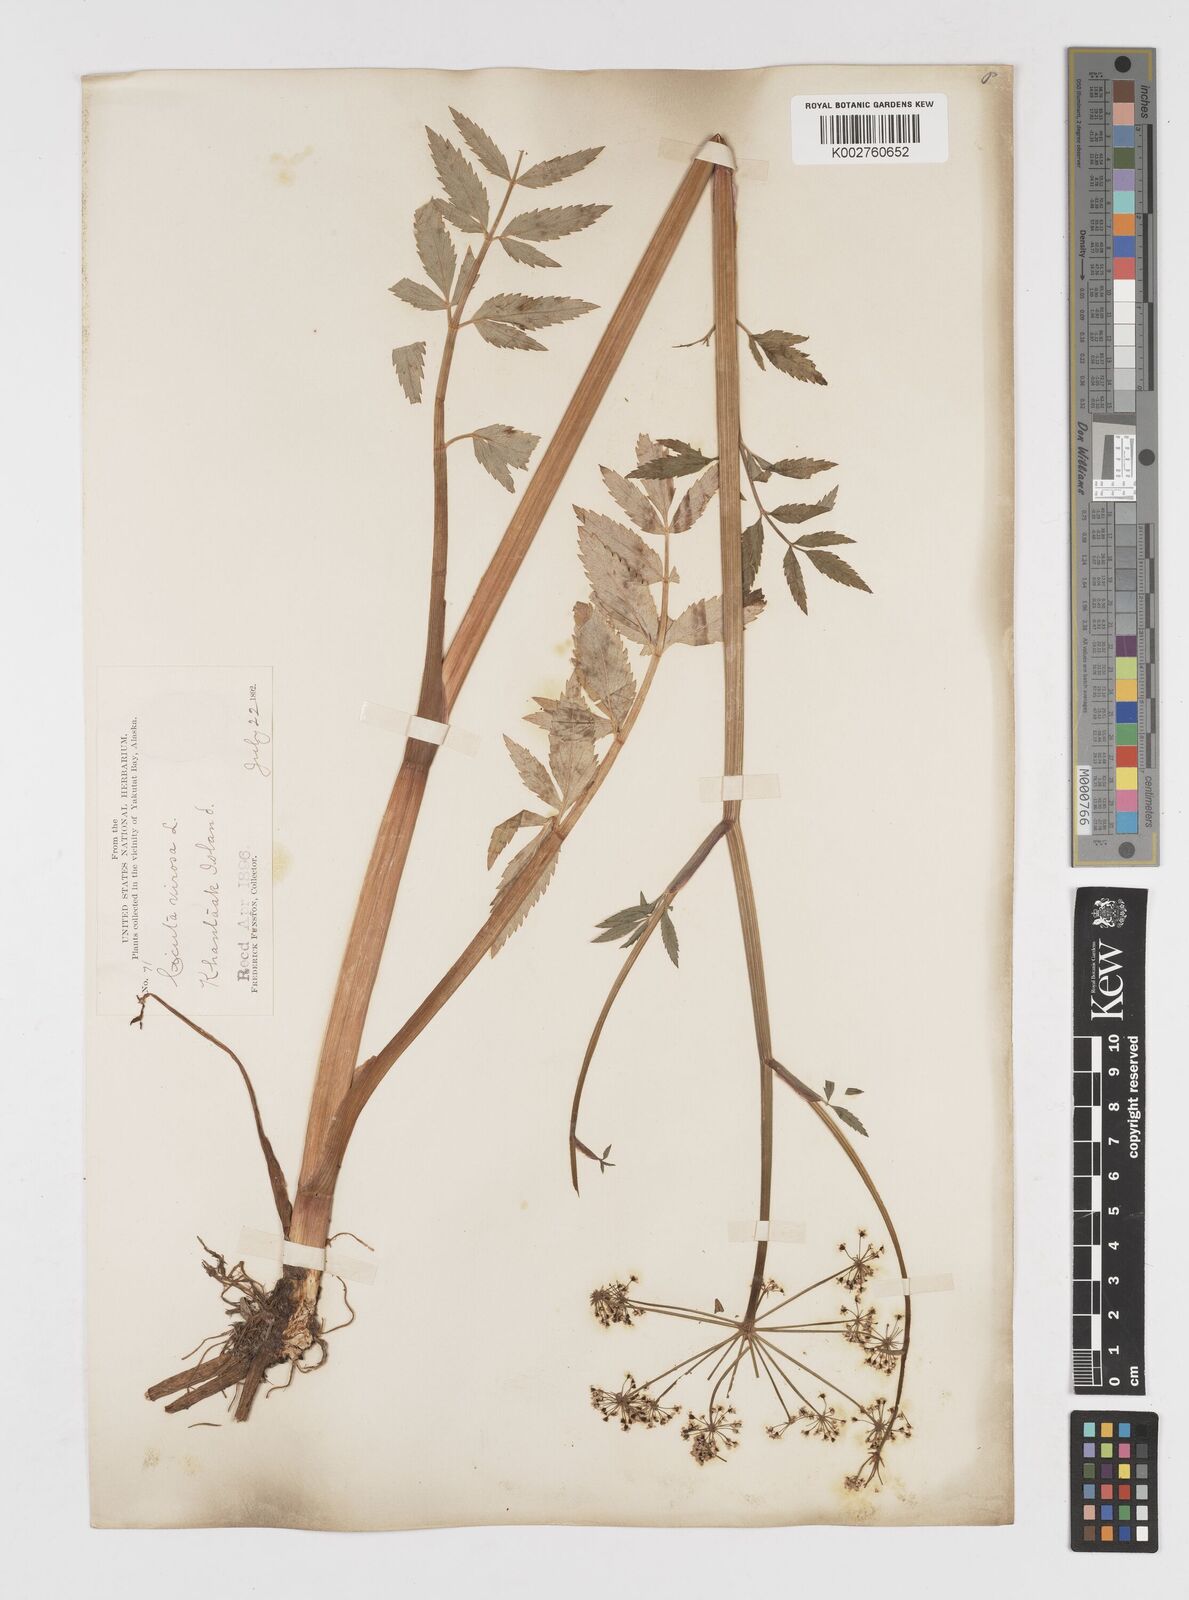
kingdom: Plantae
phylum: Tracheophyta
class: Magnoliopsida
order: Apiales
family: Apiaceae
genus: Cicuta
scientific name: Cicuta douglasii
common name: Western water-hemlock
